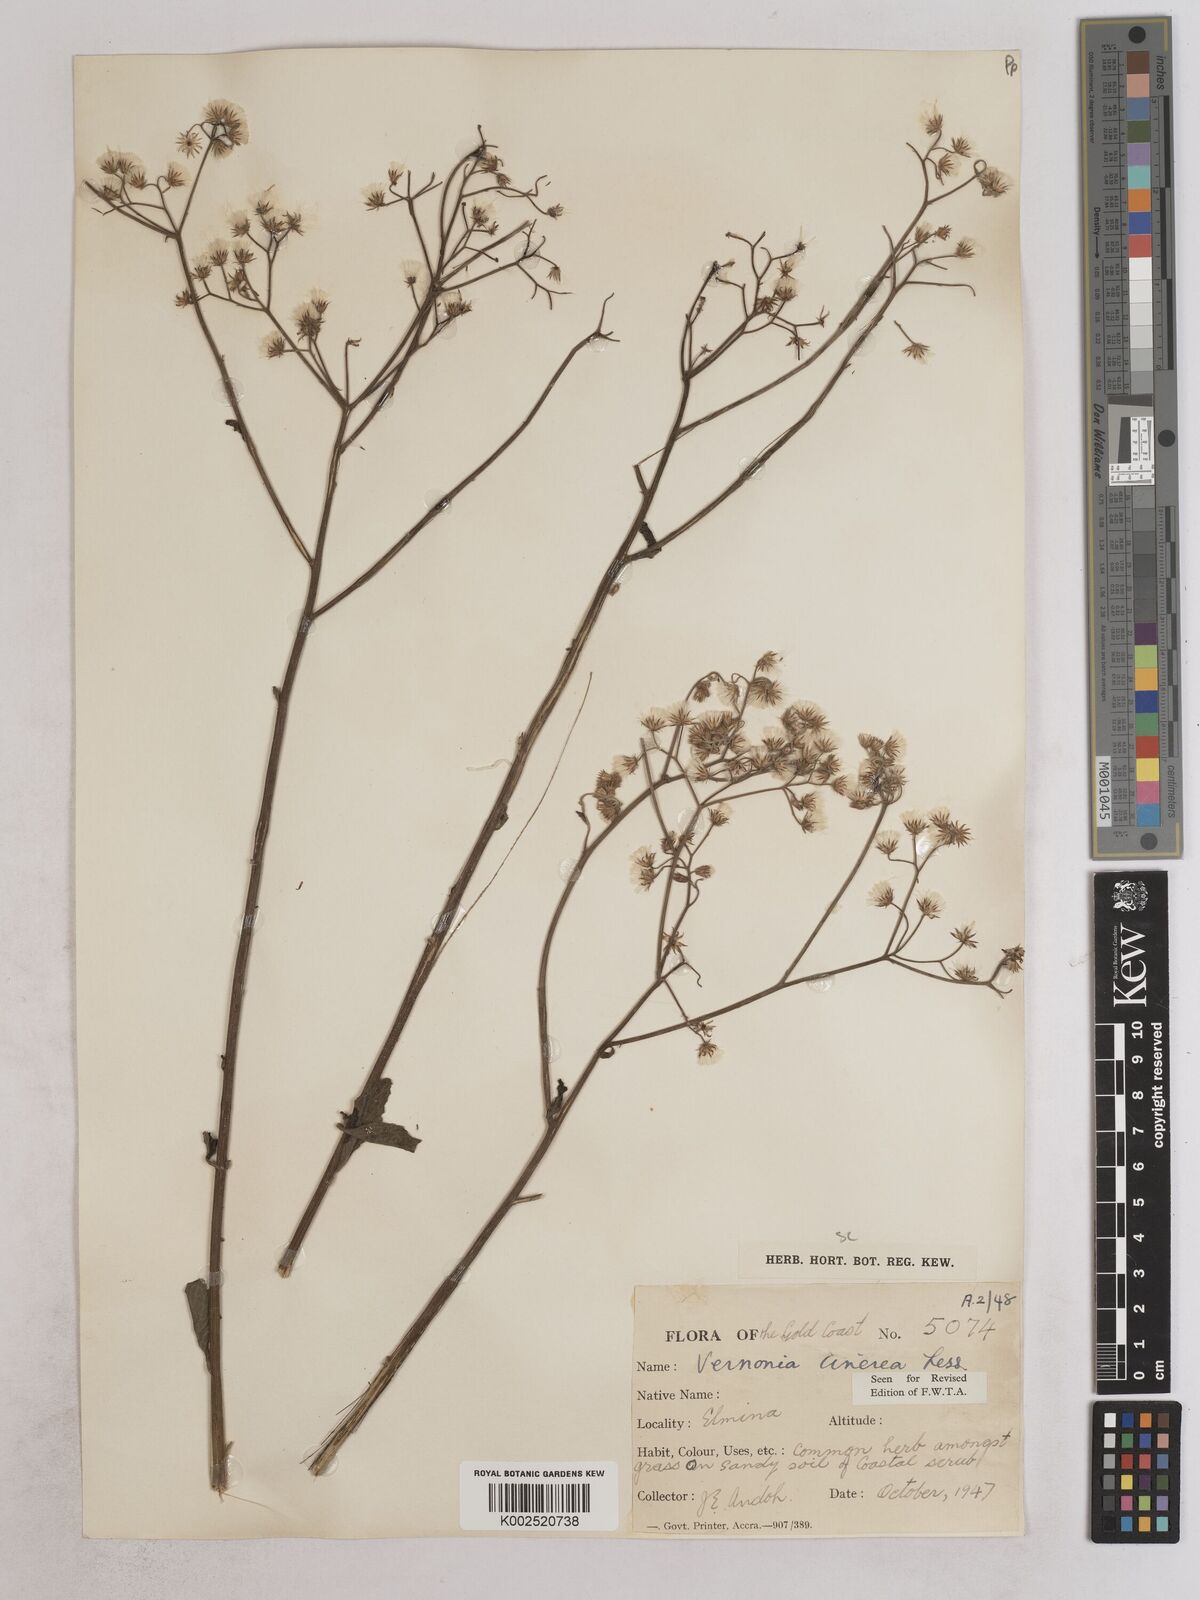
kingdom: Plantae
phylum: Tracheophyta
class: Magnoliopsida
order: Asterales
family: Asteraceae
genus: Cyanthillium
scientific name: Cyanthillium cinereum
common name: Little ironweed
